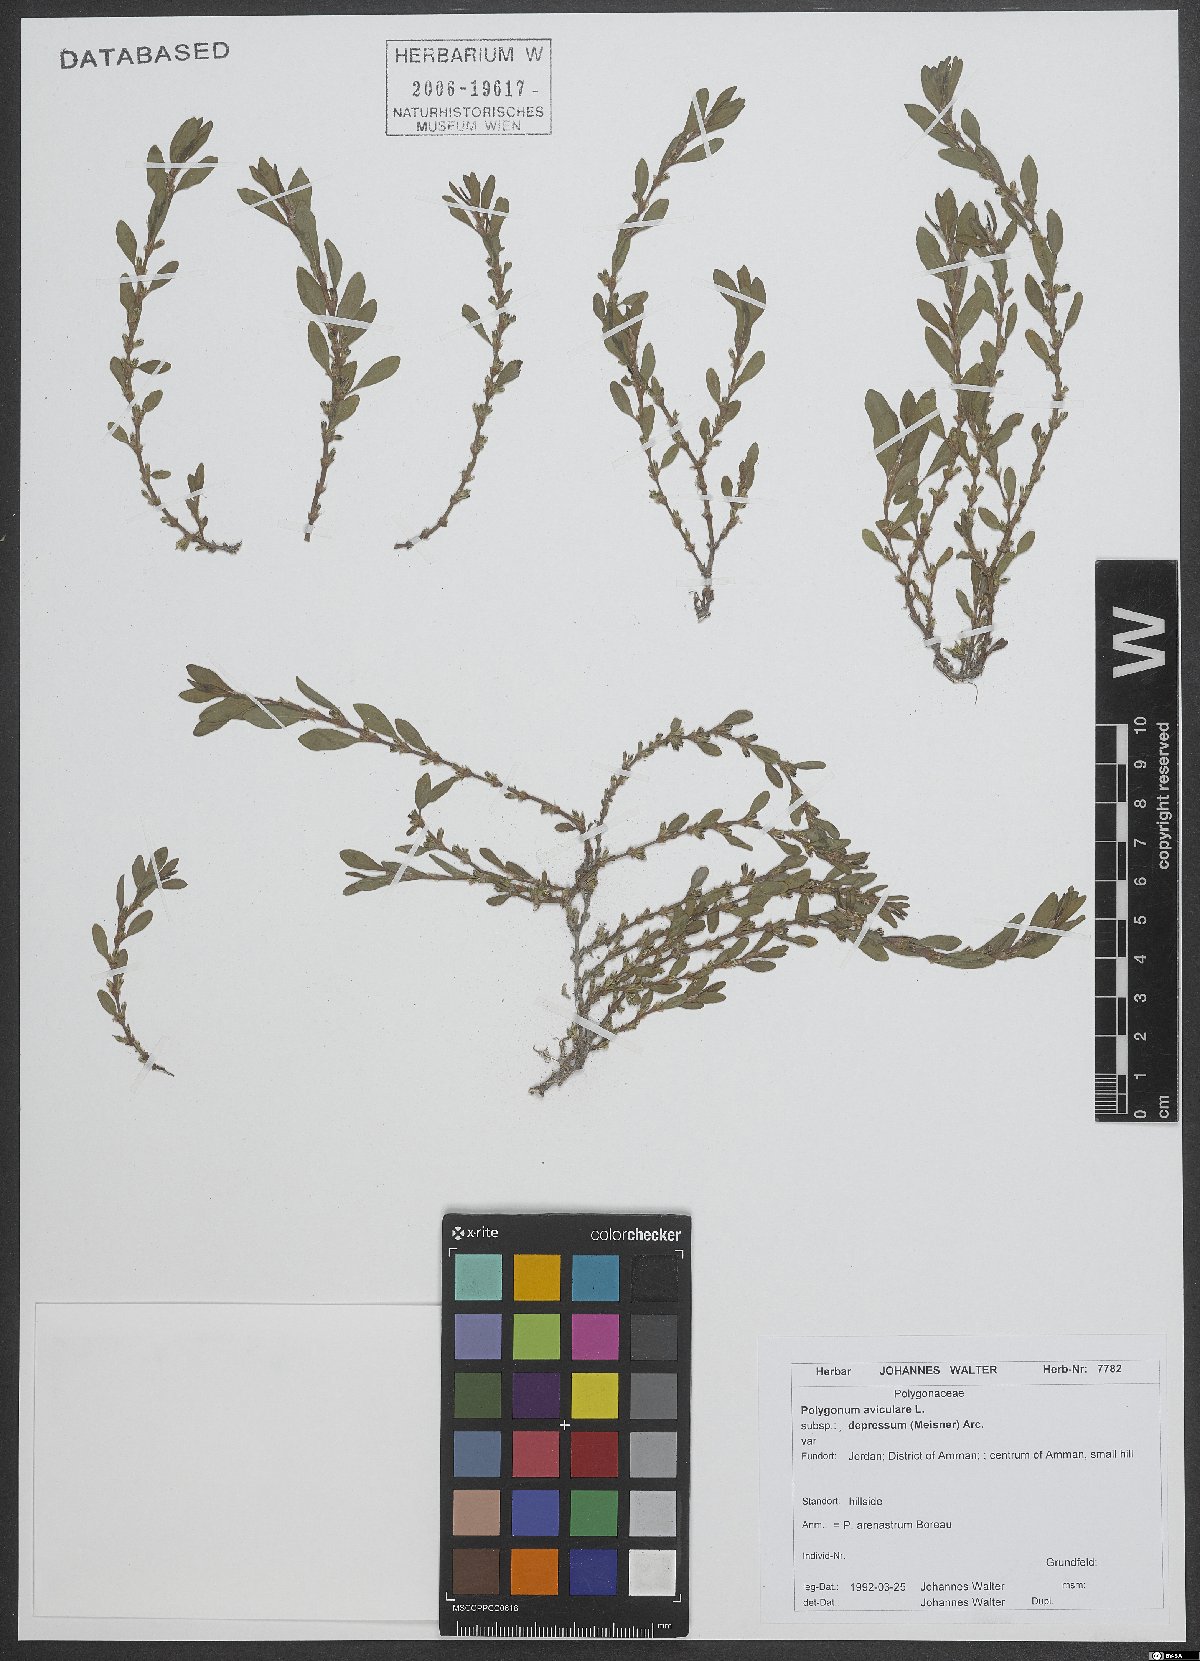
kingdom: Plantae
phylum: Tracheophyta
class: Magnoliopsida
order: Caryophyllales
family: Polygonaceae
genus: Polygonum
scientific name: Polygonum arenastrum
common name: Equal-leaved knotgrass
